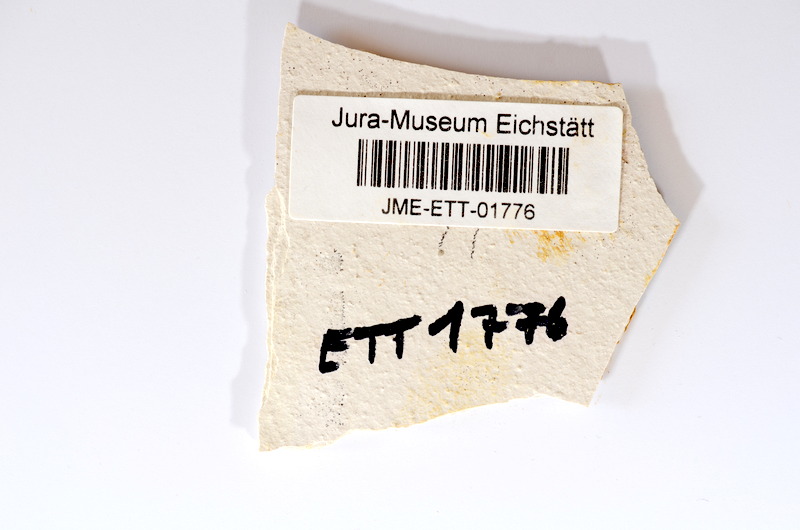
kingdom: Animalia
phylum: Chordata
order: Salmoniformes
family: Orthogonikleithridae
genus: Orthogonikleithrus
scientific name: Orthogonikleithrus hoelli
